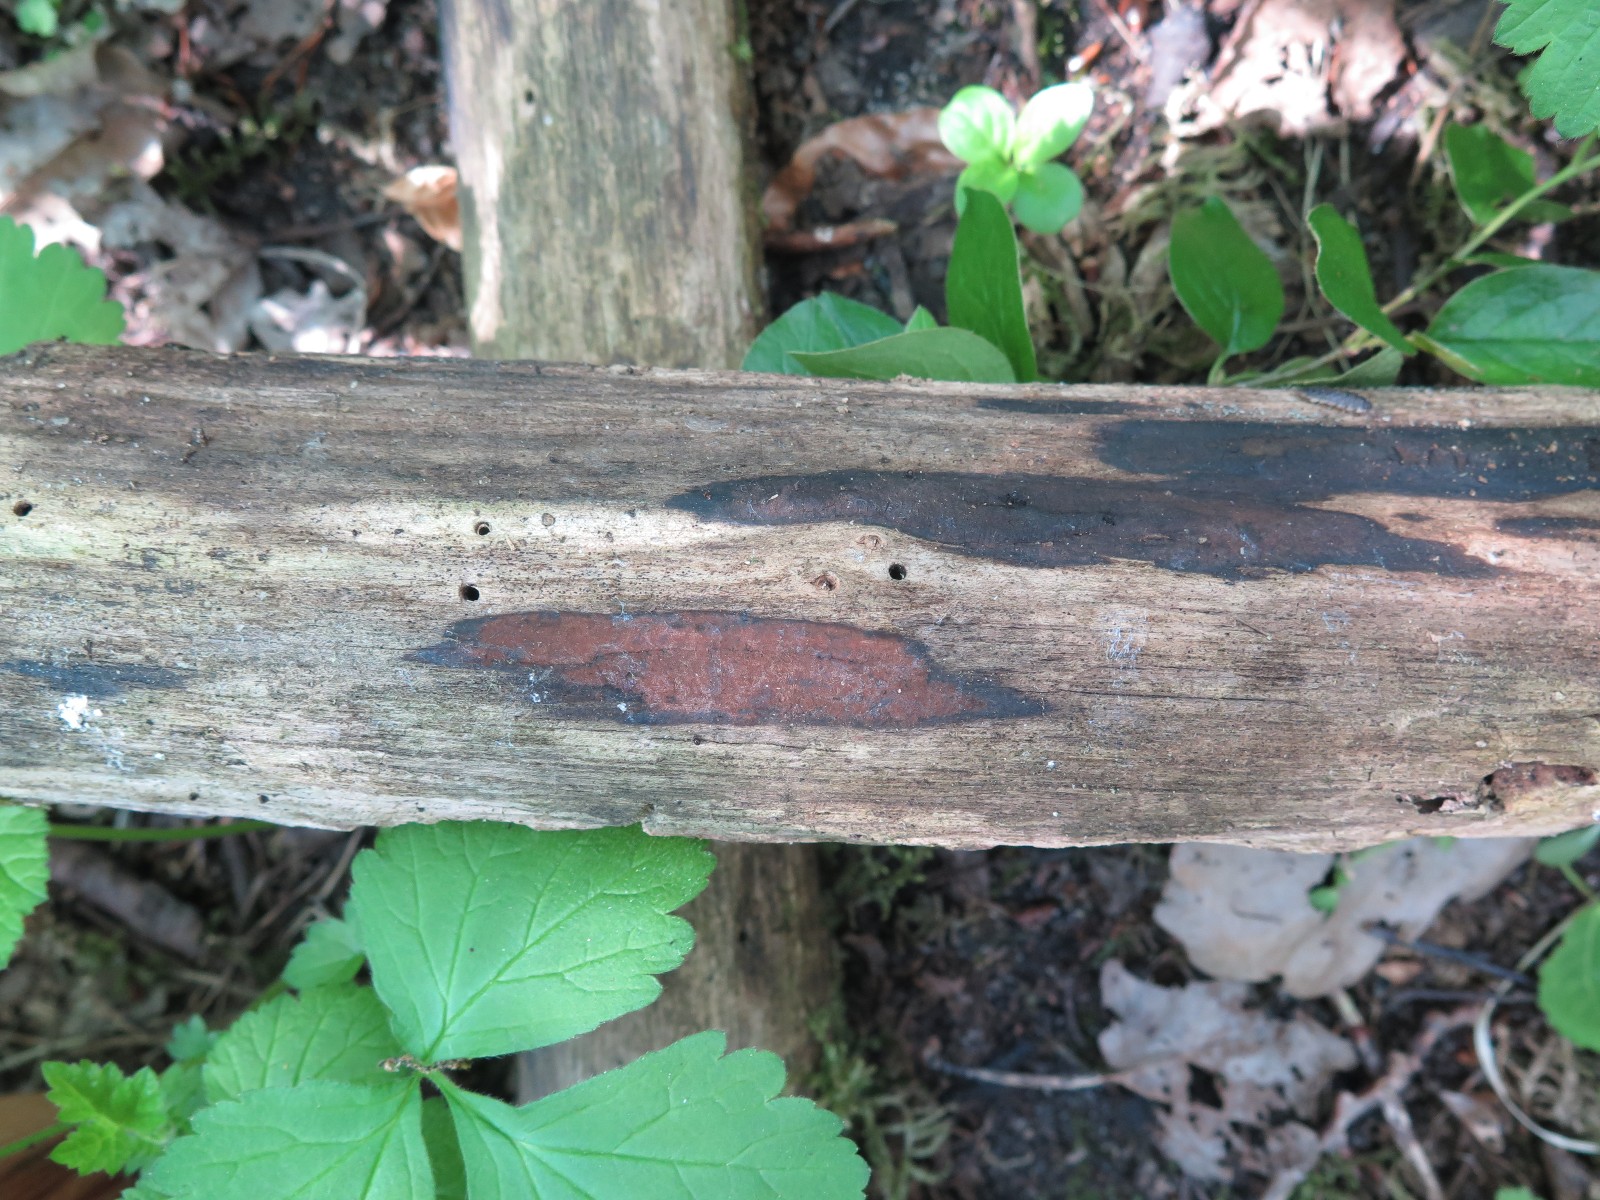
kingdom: Fungi
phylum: Ascomycota
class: Sordariomycetes
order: Xylariales
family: Hypoxylaceae
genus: Hypoxylon
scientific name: Hypoxylon macrocarpum
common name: skorpe-kulbær
